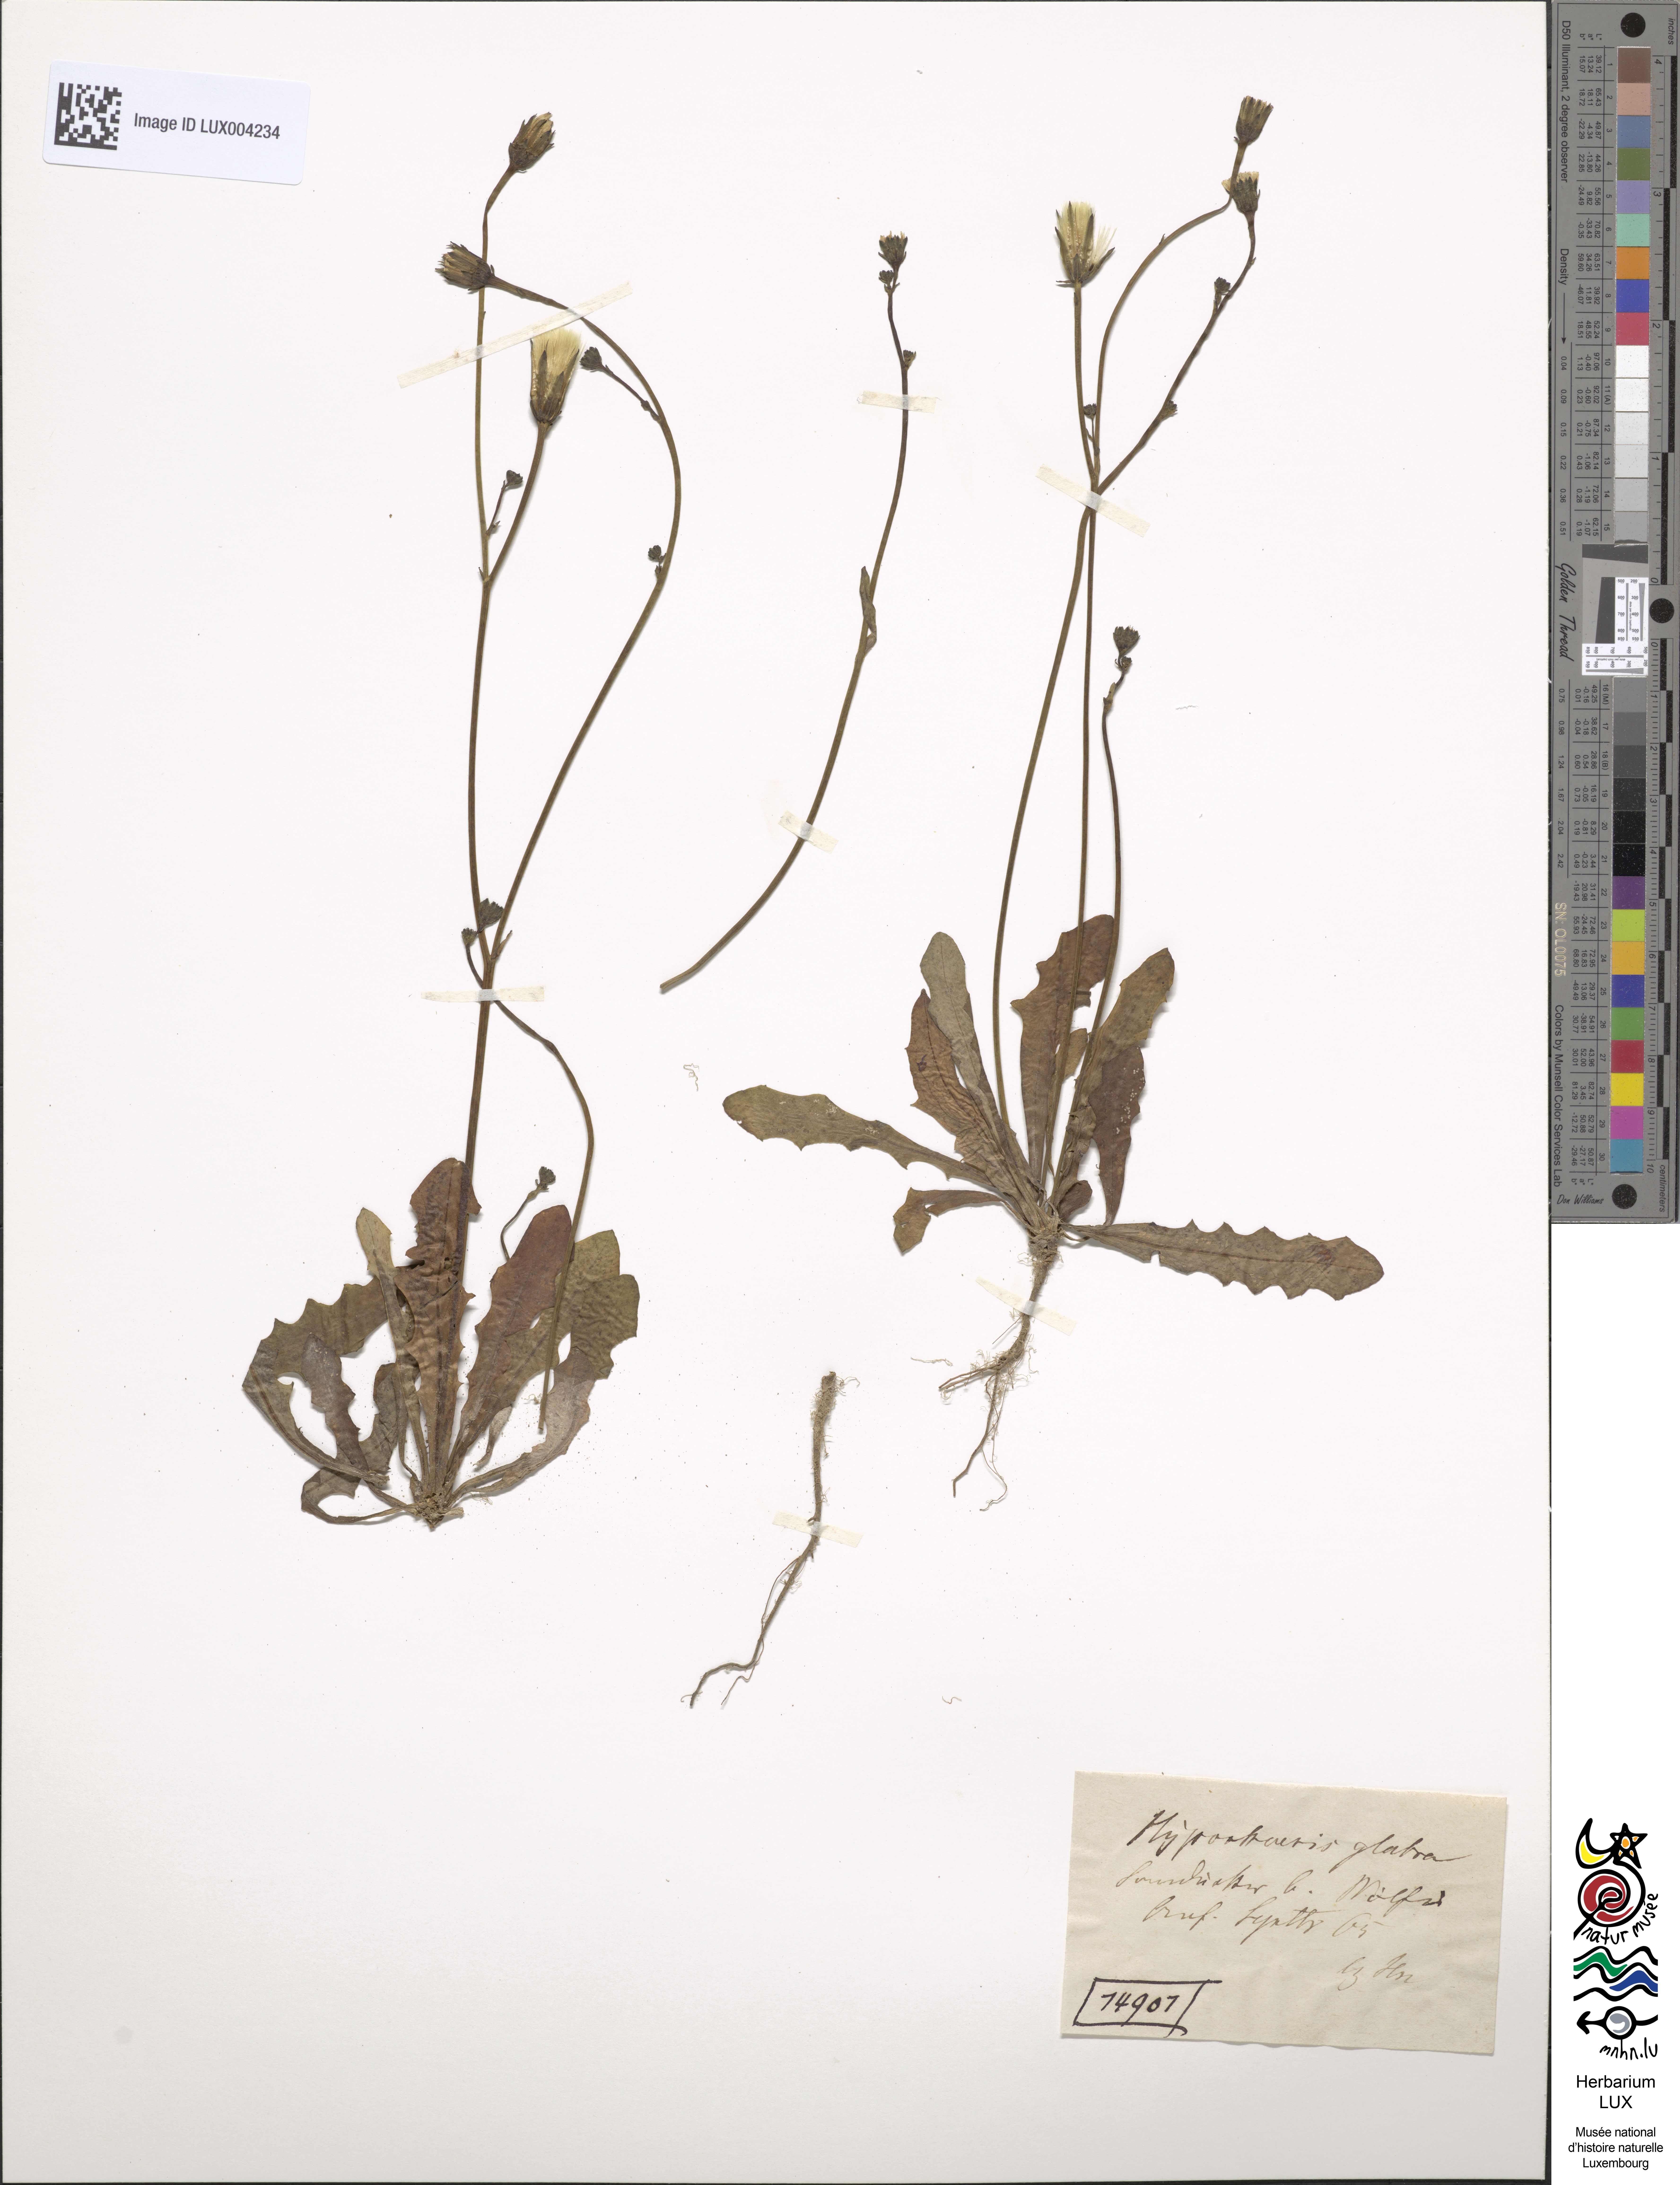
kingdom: Plantae
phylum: Tracheophyta
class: Magnoliopsida
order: Asterales
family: Asteraceae
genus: Hypochoeris
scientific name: Hypochoeris glabra
